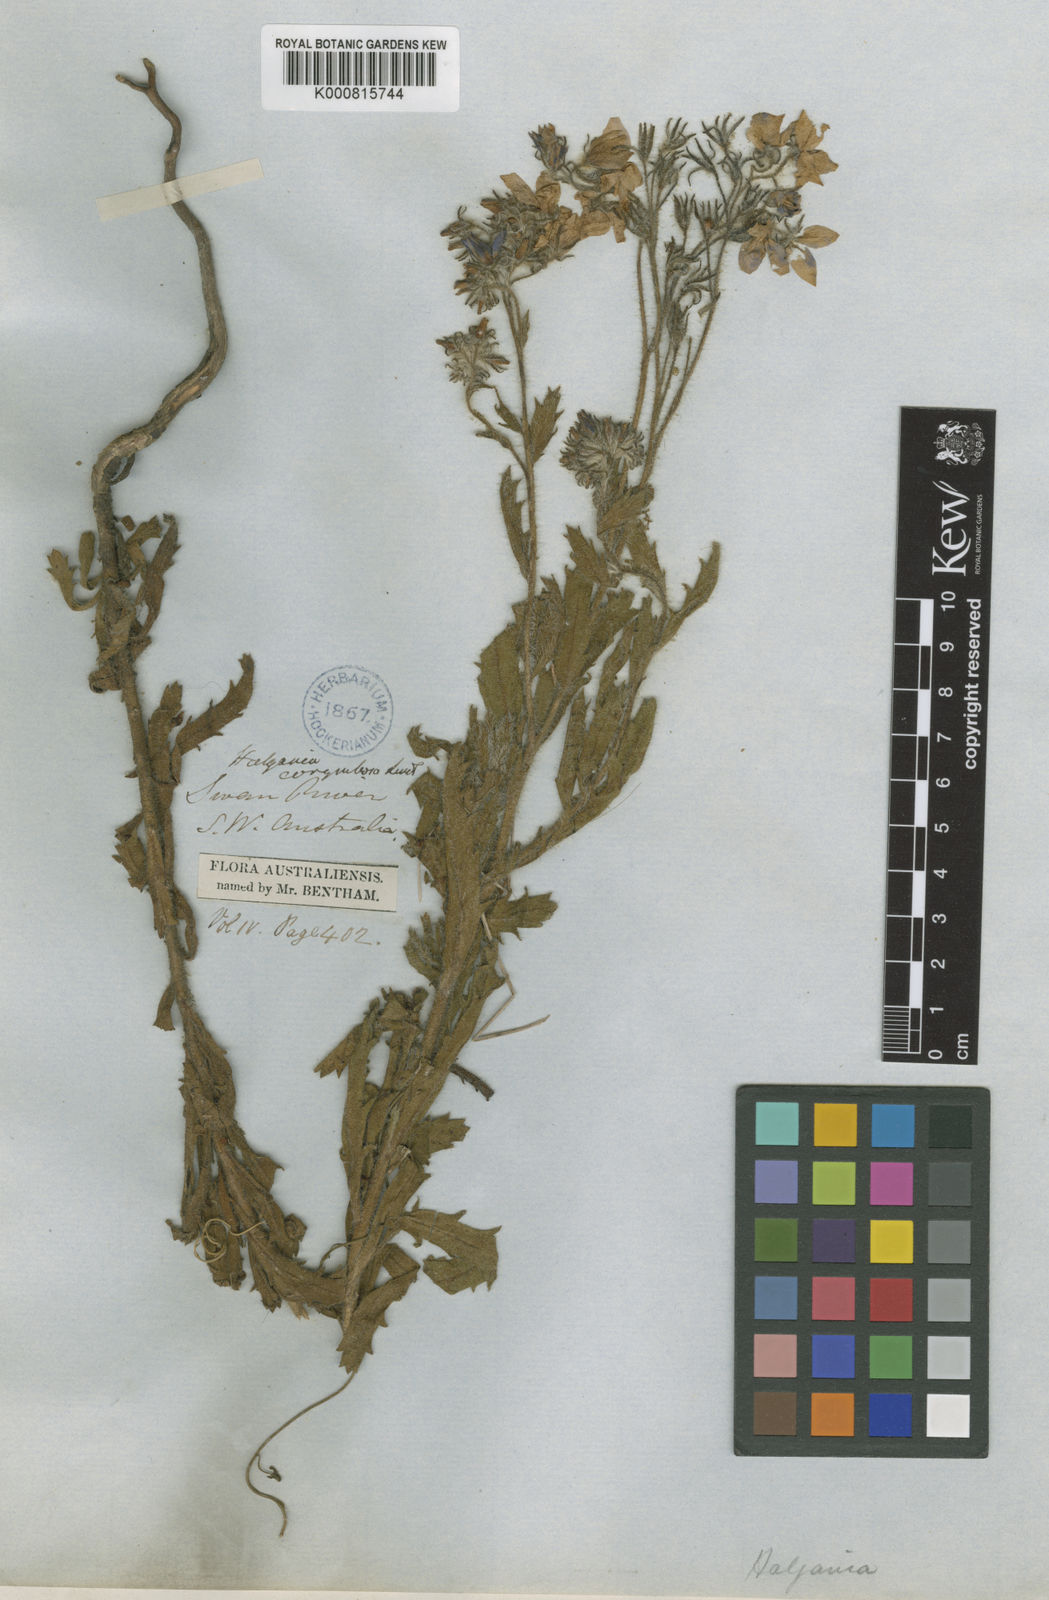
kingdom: Plantae
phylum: Tracheophyta
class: Magnoliopsida
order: Boraginales
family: Ehretiaceae
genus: Halgania
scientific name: Halgania corymbosa
